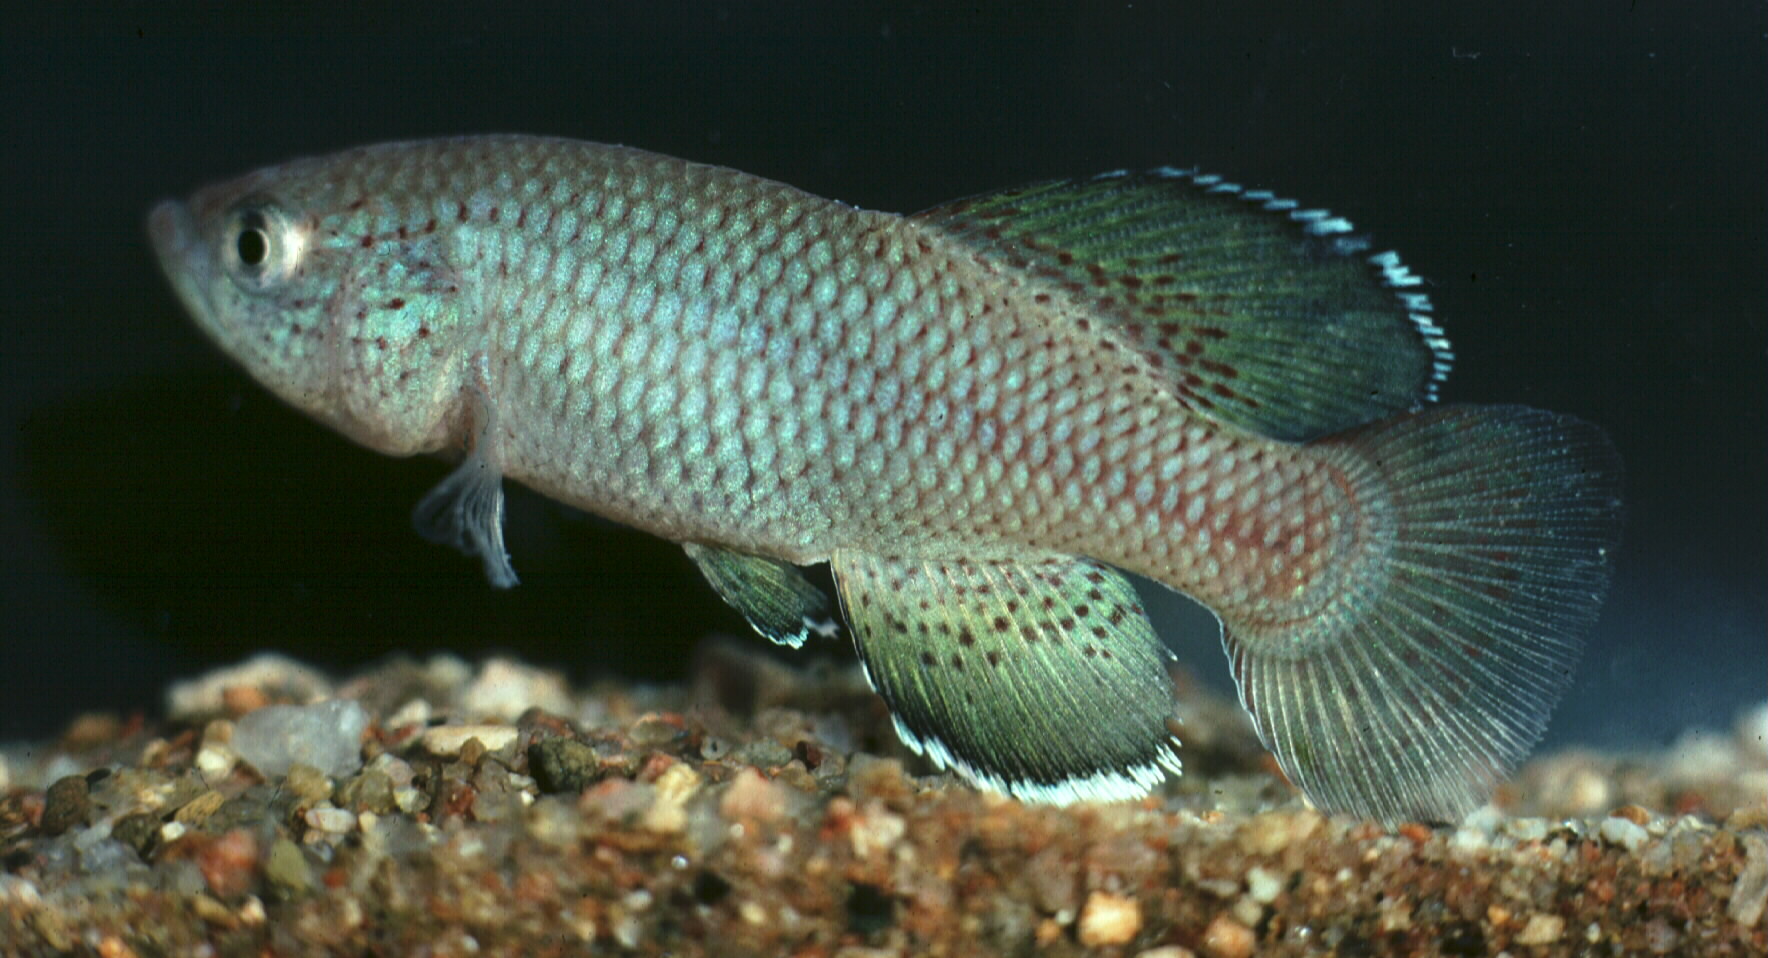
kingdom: Animalia
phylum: Chordata
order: Cyprinodontiformes
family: Nothobranchiidae
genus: Nothobranchius
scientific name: Nothobranchius orthonotus
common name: Spotted killifish
